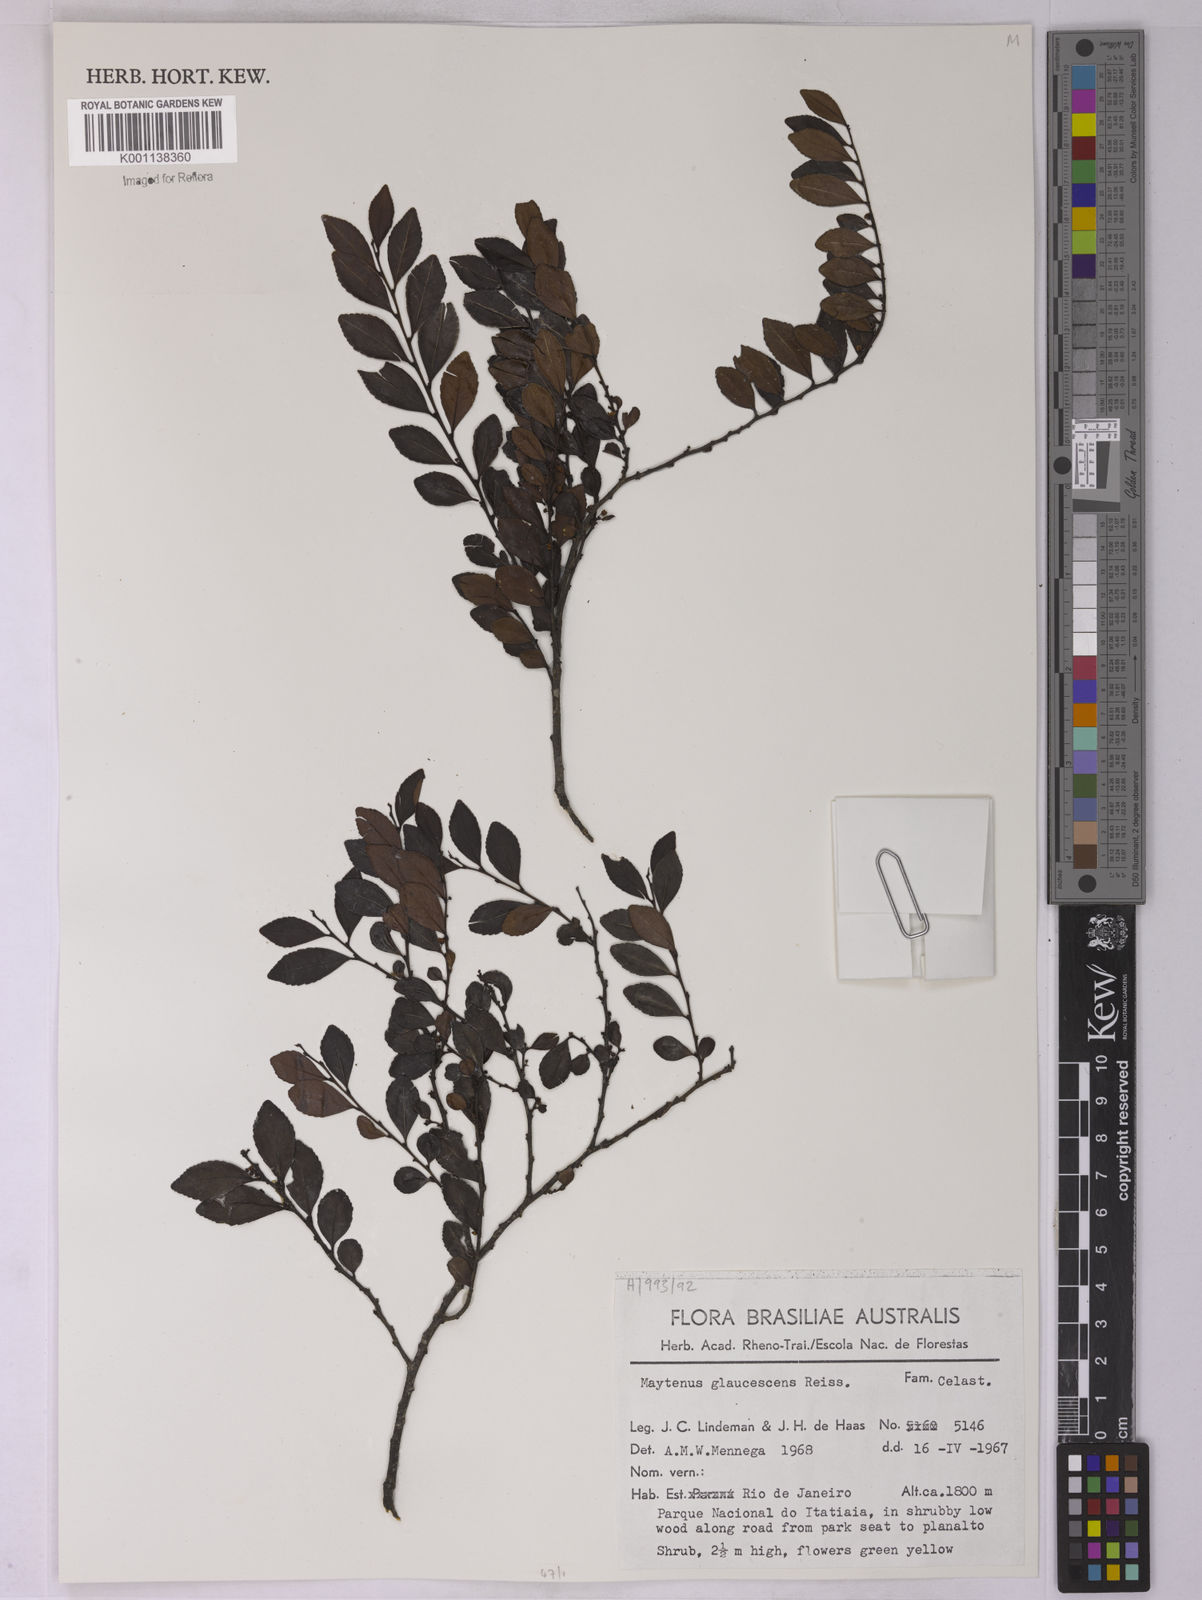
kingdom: Plantae
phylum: Tracheophyta
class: Magnoliopsida
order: Celastrales
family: Celastraceae
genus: Monteverdia
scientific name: Monteverdia glaucescens
